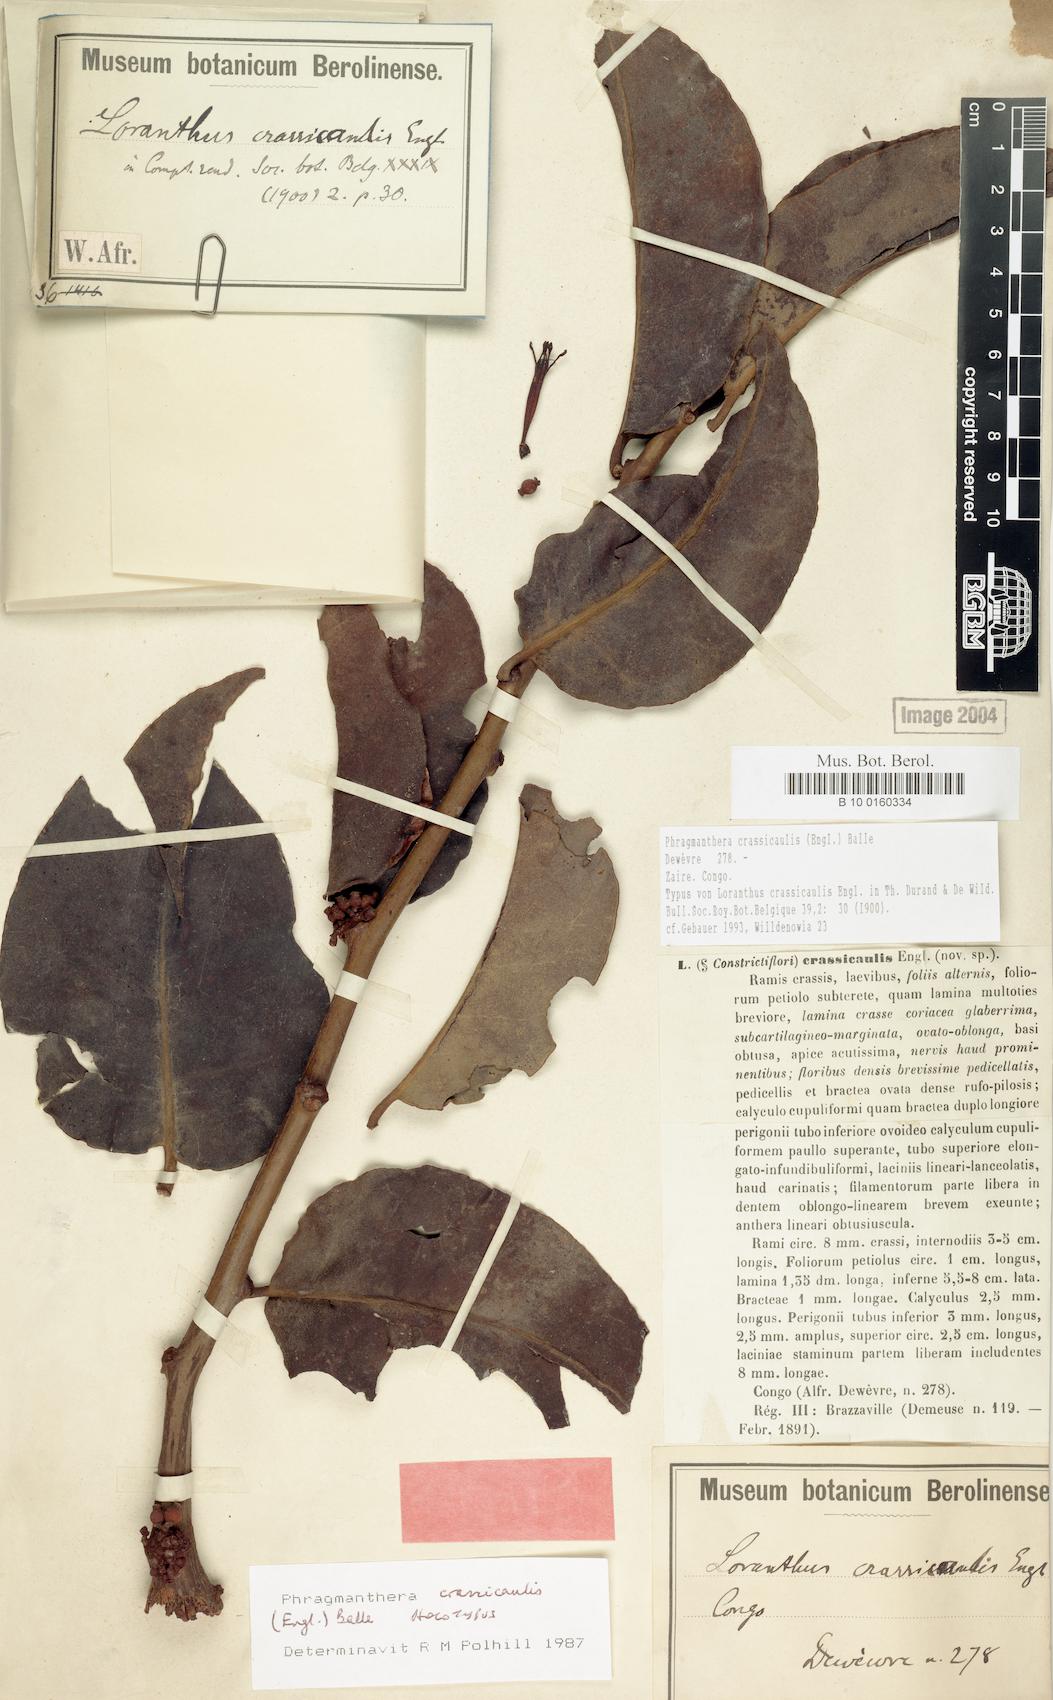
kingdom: Plantae
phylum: Tracheophyta
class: Magnoliopsida
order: Santalales
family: Loranthaceae
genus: Phragmanthera
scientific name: Phragmanthera crassicaulis
